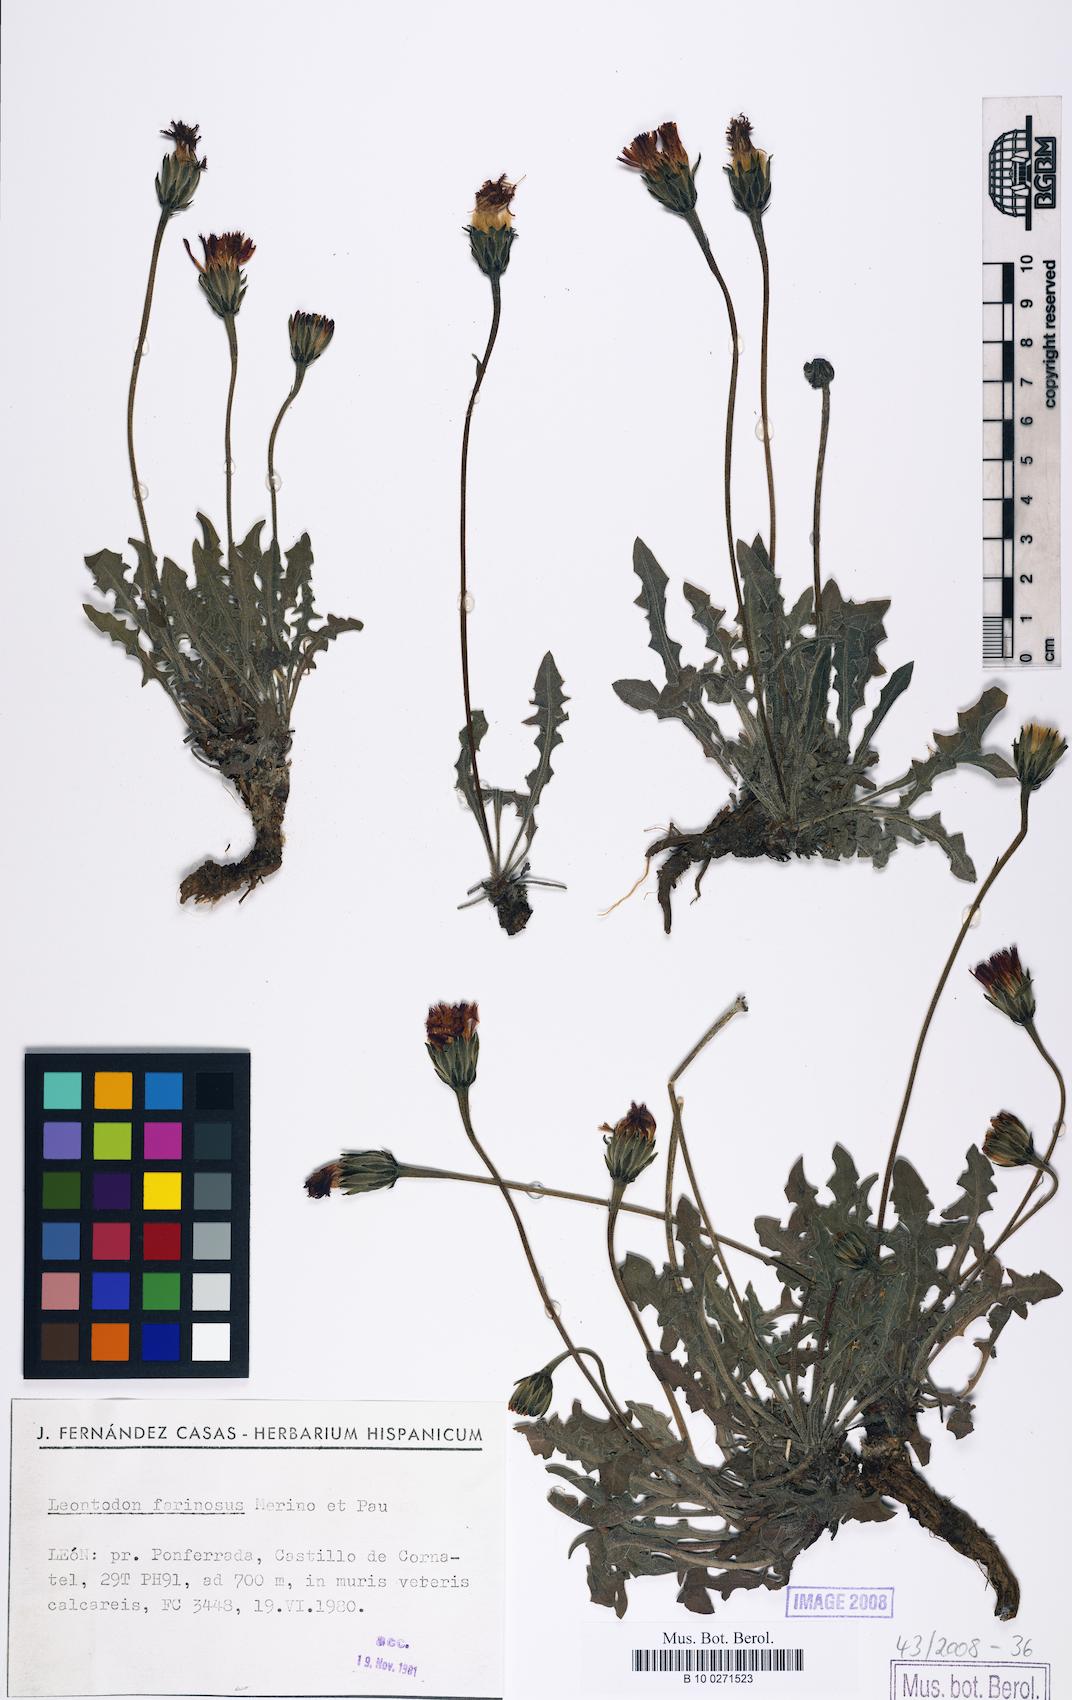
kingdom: Plantae
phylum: Tracheophyta
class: Magnoliopsida
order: Asterales
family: Asteraceae
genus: Leontodon
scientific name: Leontodon farinosus
